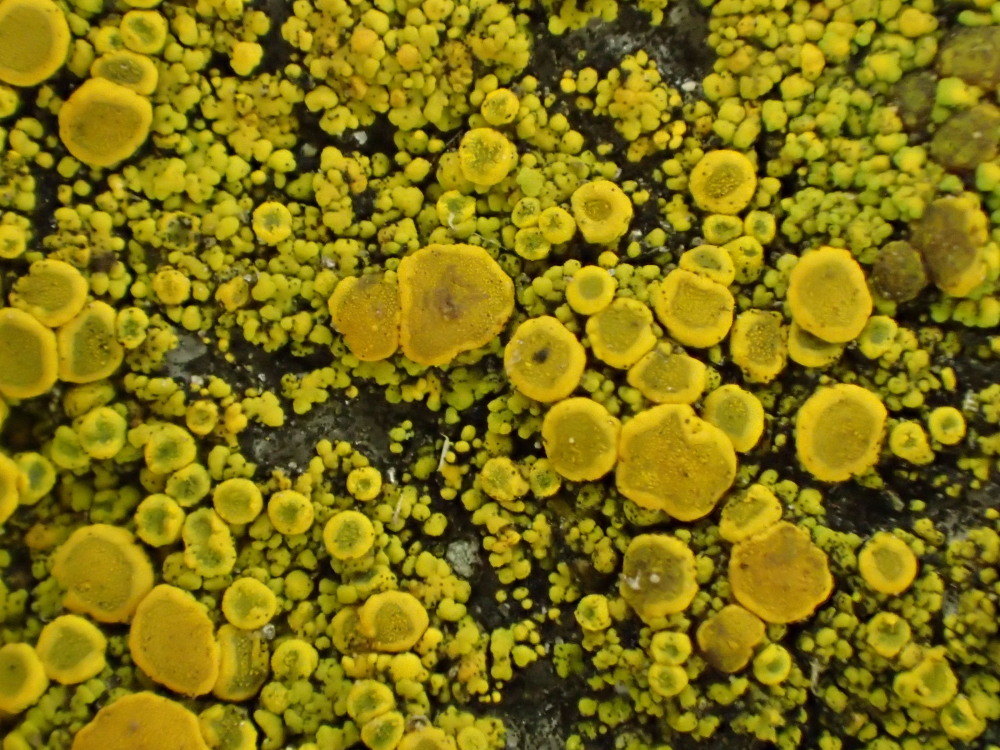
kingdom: Fungi
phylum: Ascomycota
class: Candelariomycetes
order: Candelariales
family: Candelariaceae
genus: Candelariella
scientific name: Candelariella vitellina
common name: almindelig æggeblommelav
